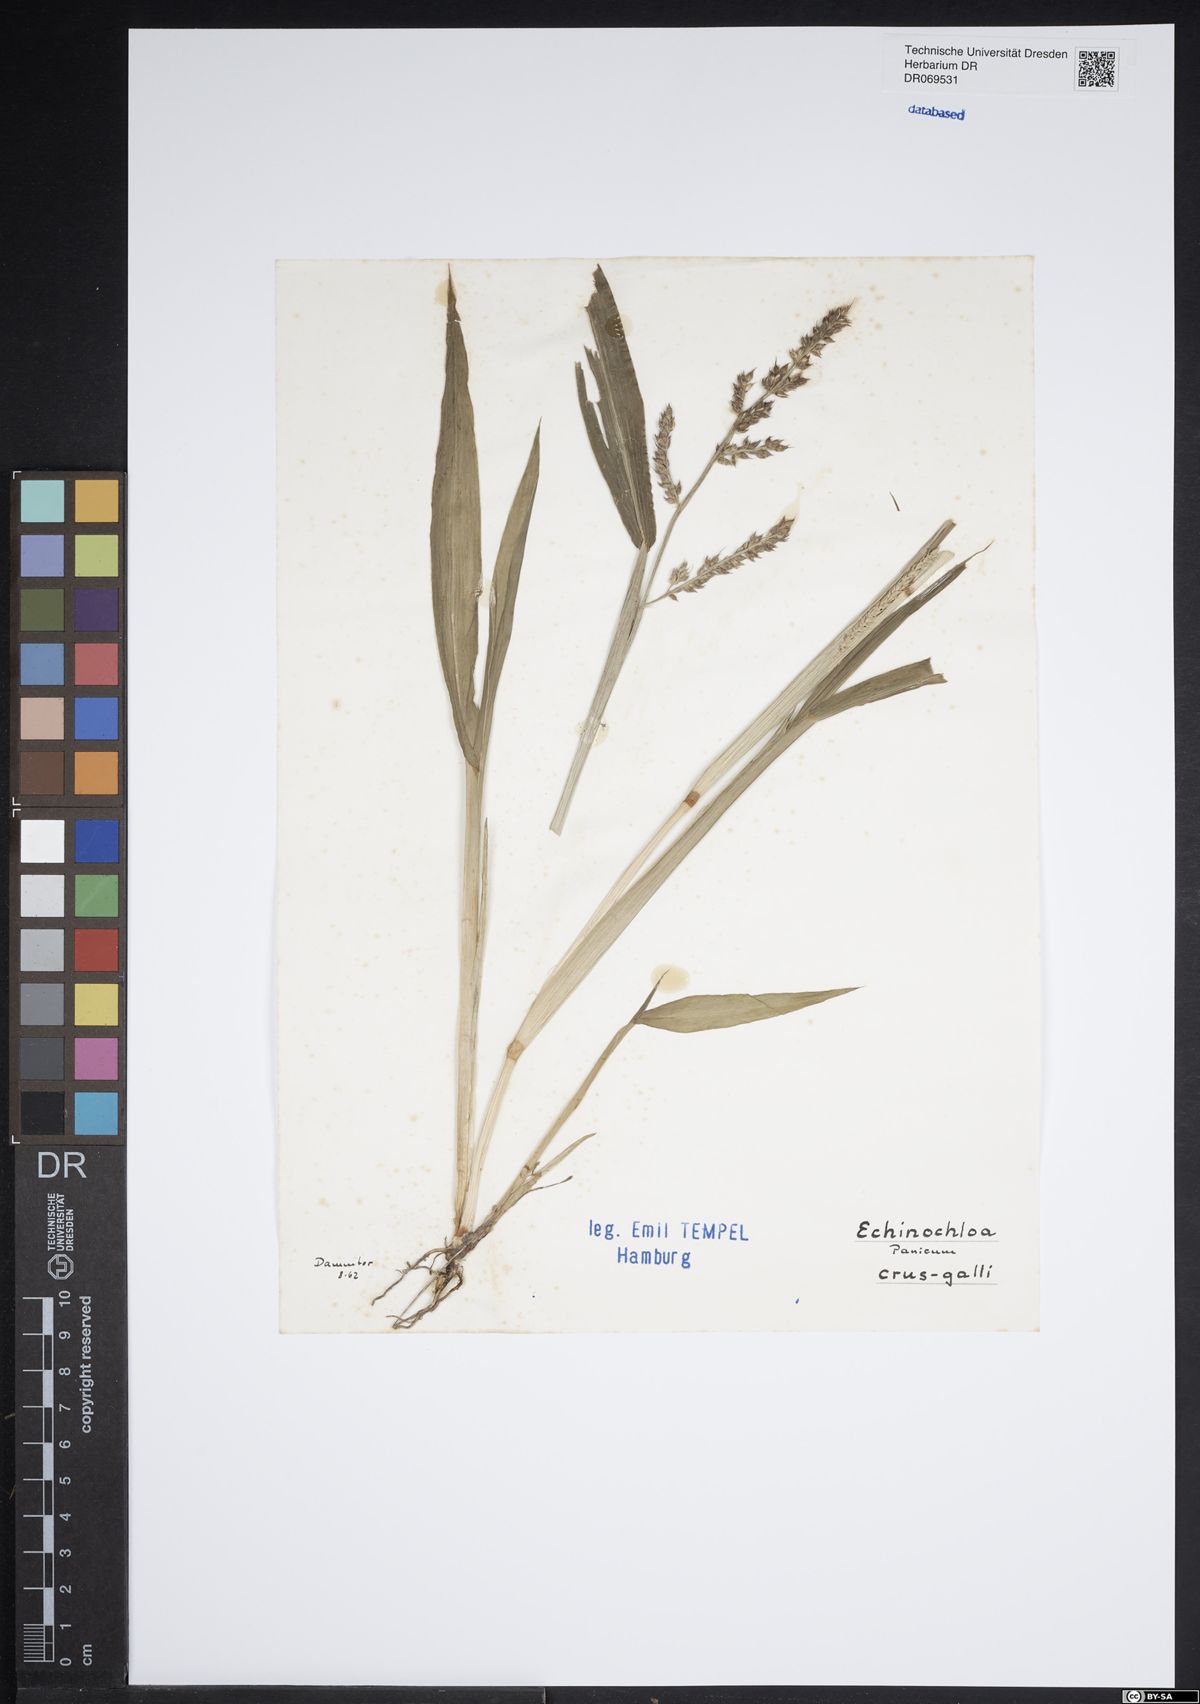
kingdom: Plantae
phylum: Tracheophyta
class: Liliopsida
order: Poales
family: Poaceae
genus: Echinochloa
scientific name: Echinochloa crus-galli
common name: Cockspur
